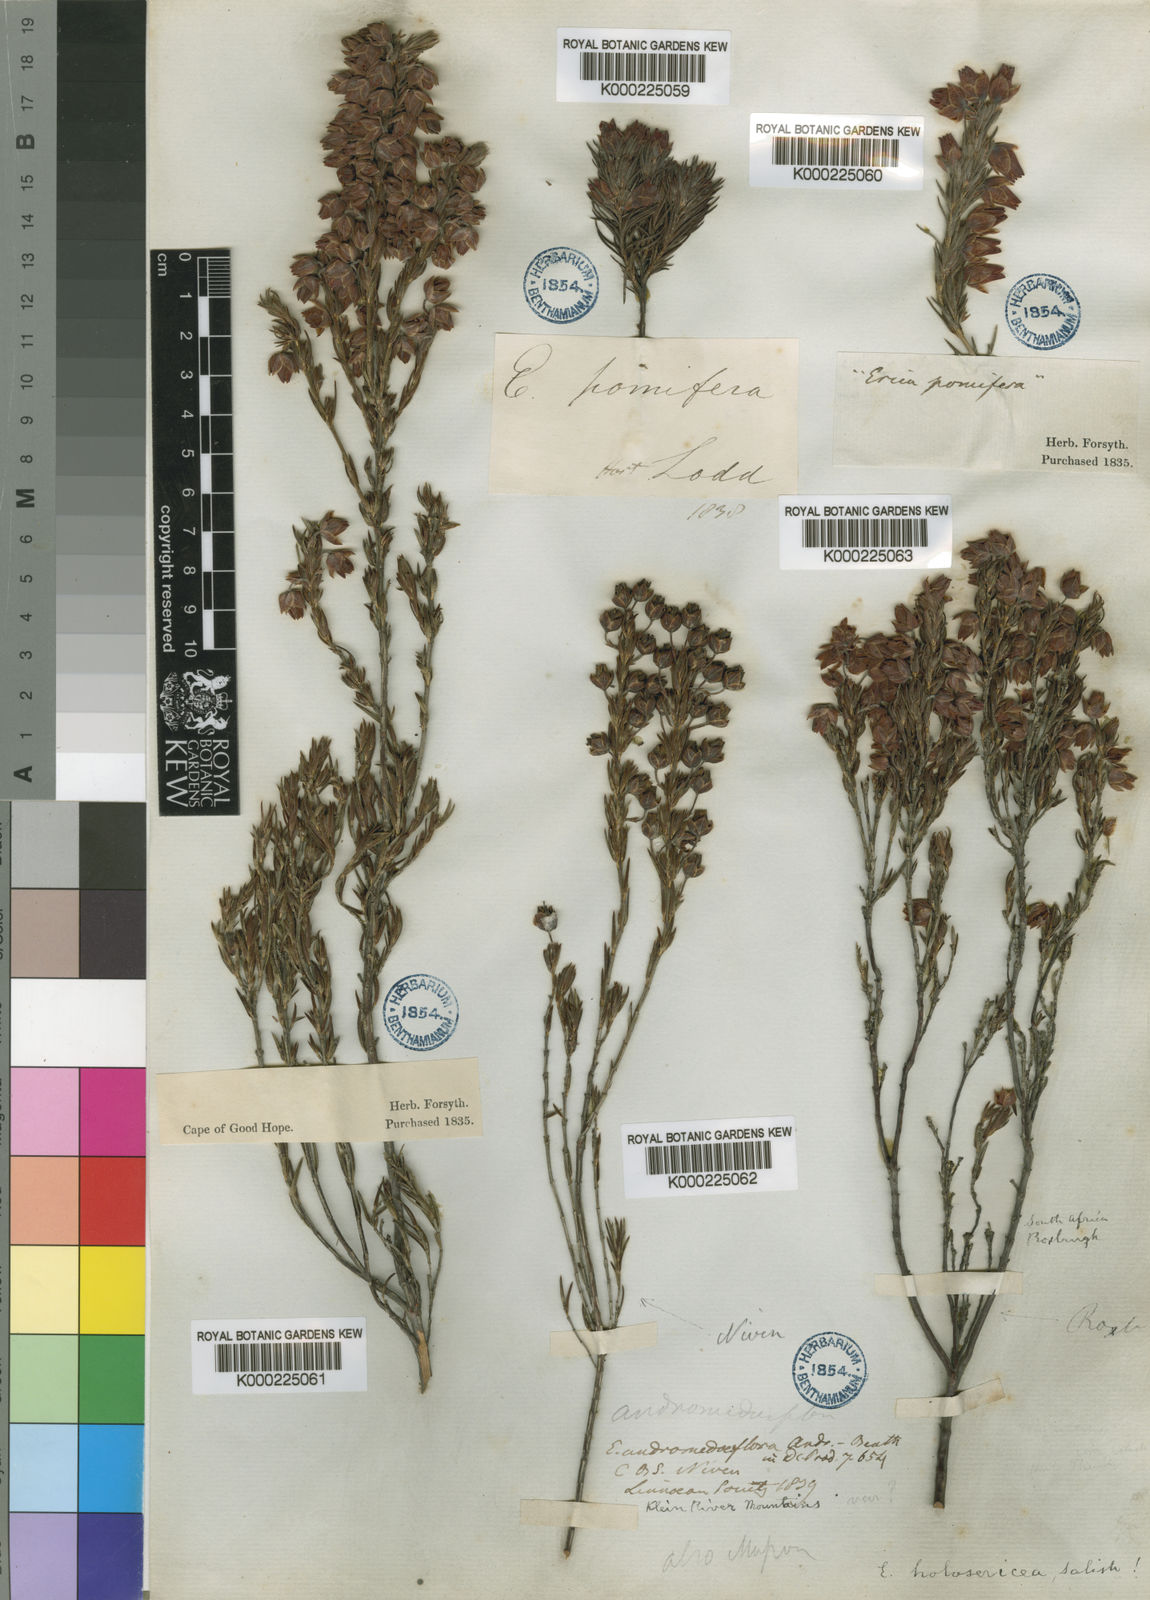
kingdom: Plantae
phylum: Tracheophyta
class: Magnoliopsida
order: Ericales
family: Ericaceae
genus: Erica
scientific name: Erica holosericea
